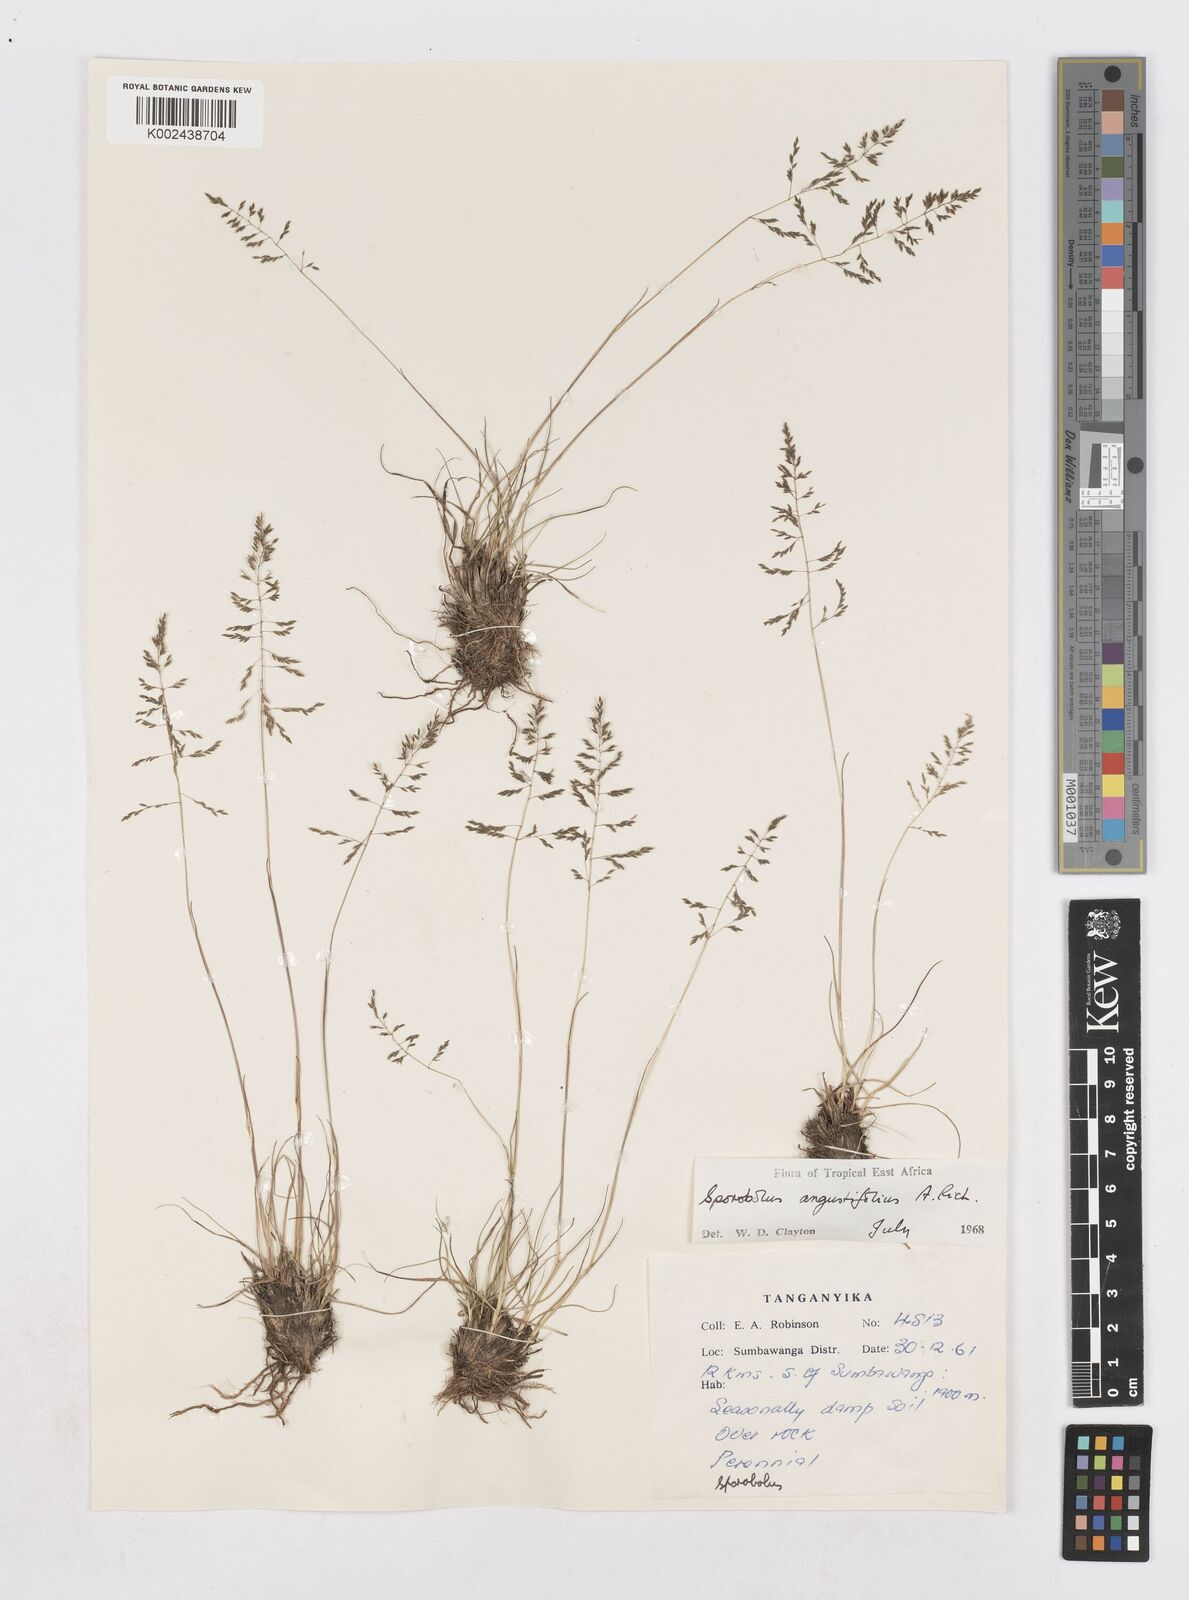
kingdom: Plantae
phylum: Tracheophyta
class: Liliopsida
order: Poales
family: Poaceae
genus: Sporobolus
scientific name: Sporobolus angustifolius
